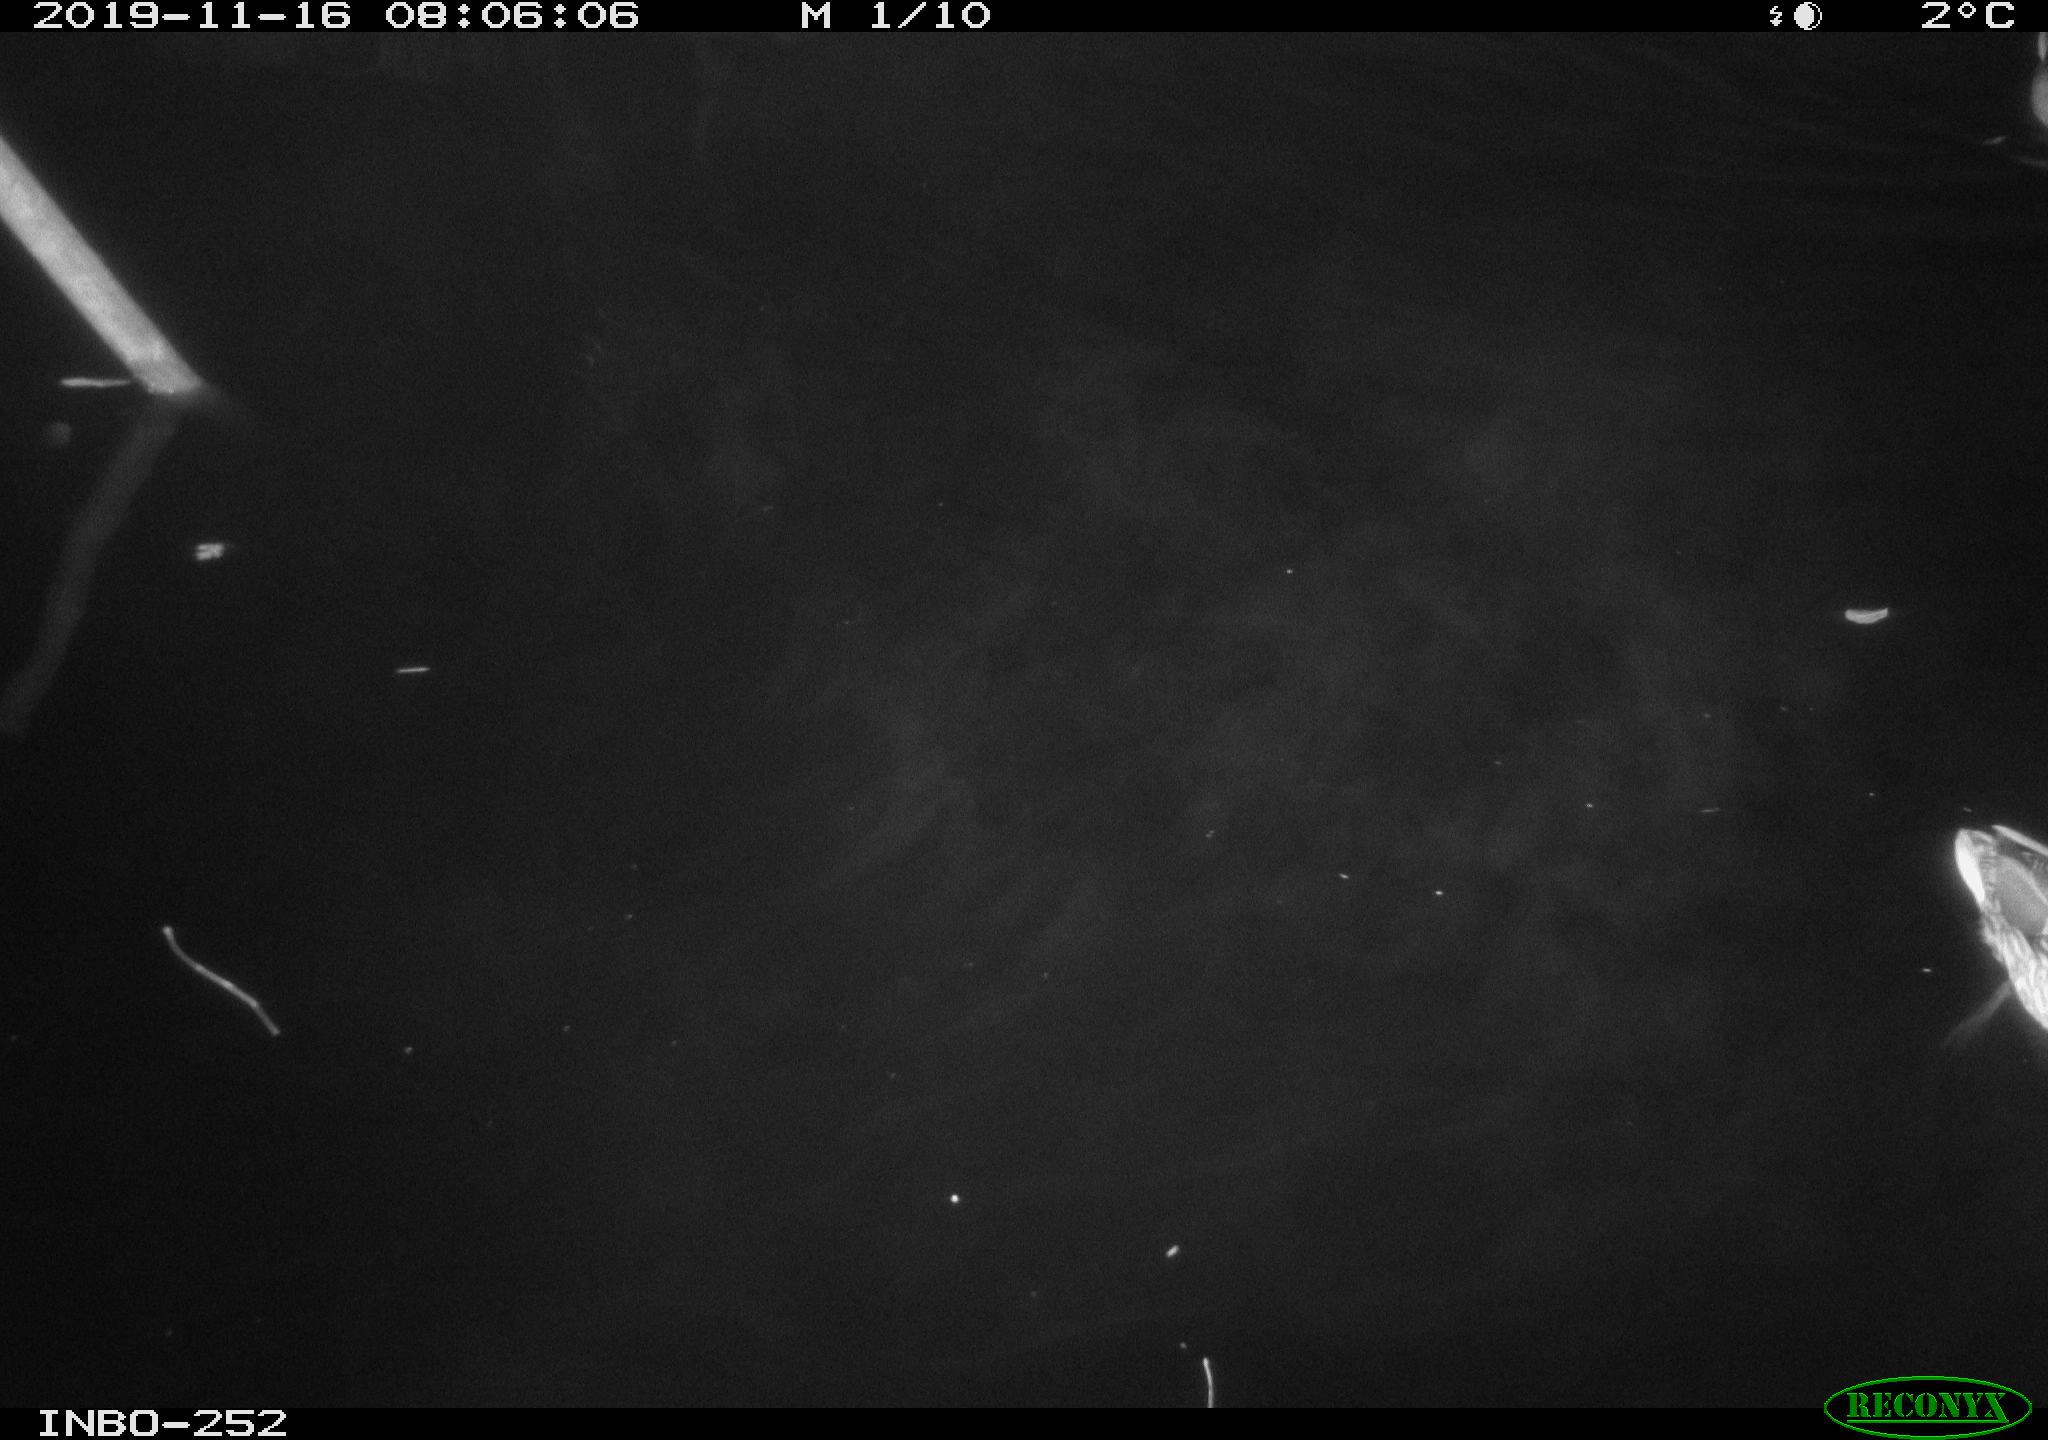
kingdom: Animalia
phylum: Chordata
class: Aves
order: Gruiformes
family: Rallidae
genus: Gallinula
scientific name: Gallinula chloropus
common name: Common moorhen
